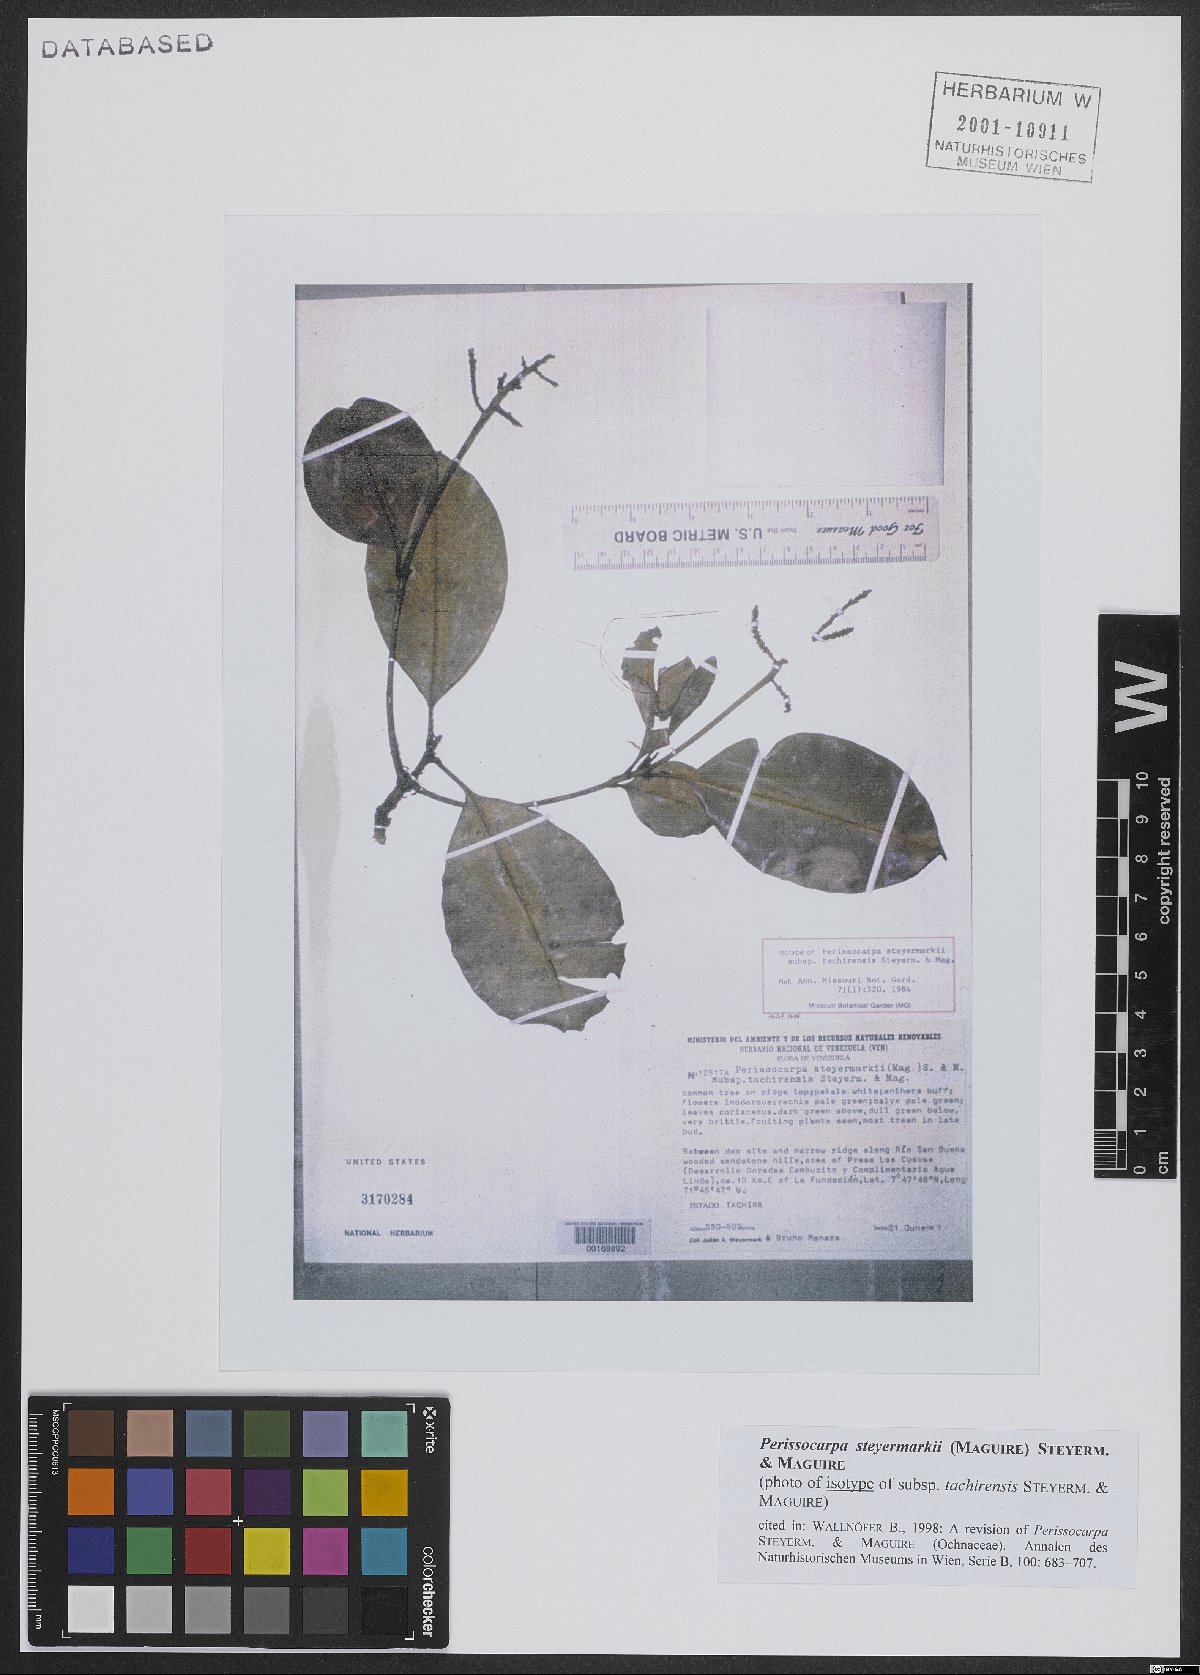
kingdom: Plantae
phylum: Tracheophyta
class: Magnoliopsida
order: Malpighiales
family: Ochnaceae
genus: Perissocarpa
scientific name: Perissocarpa steyermarkii
